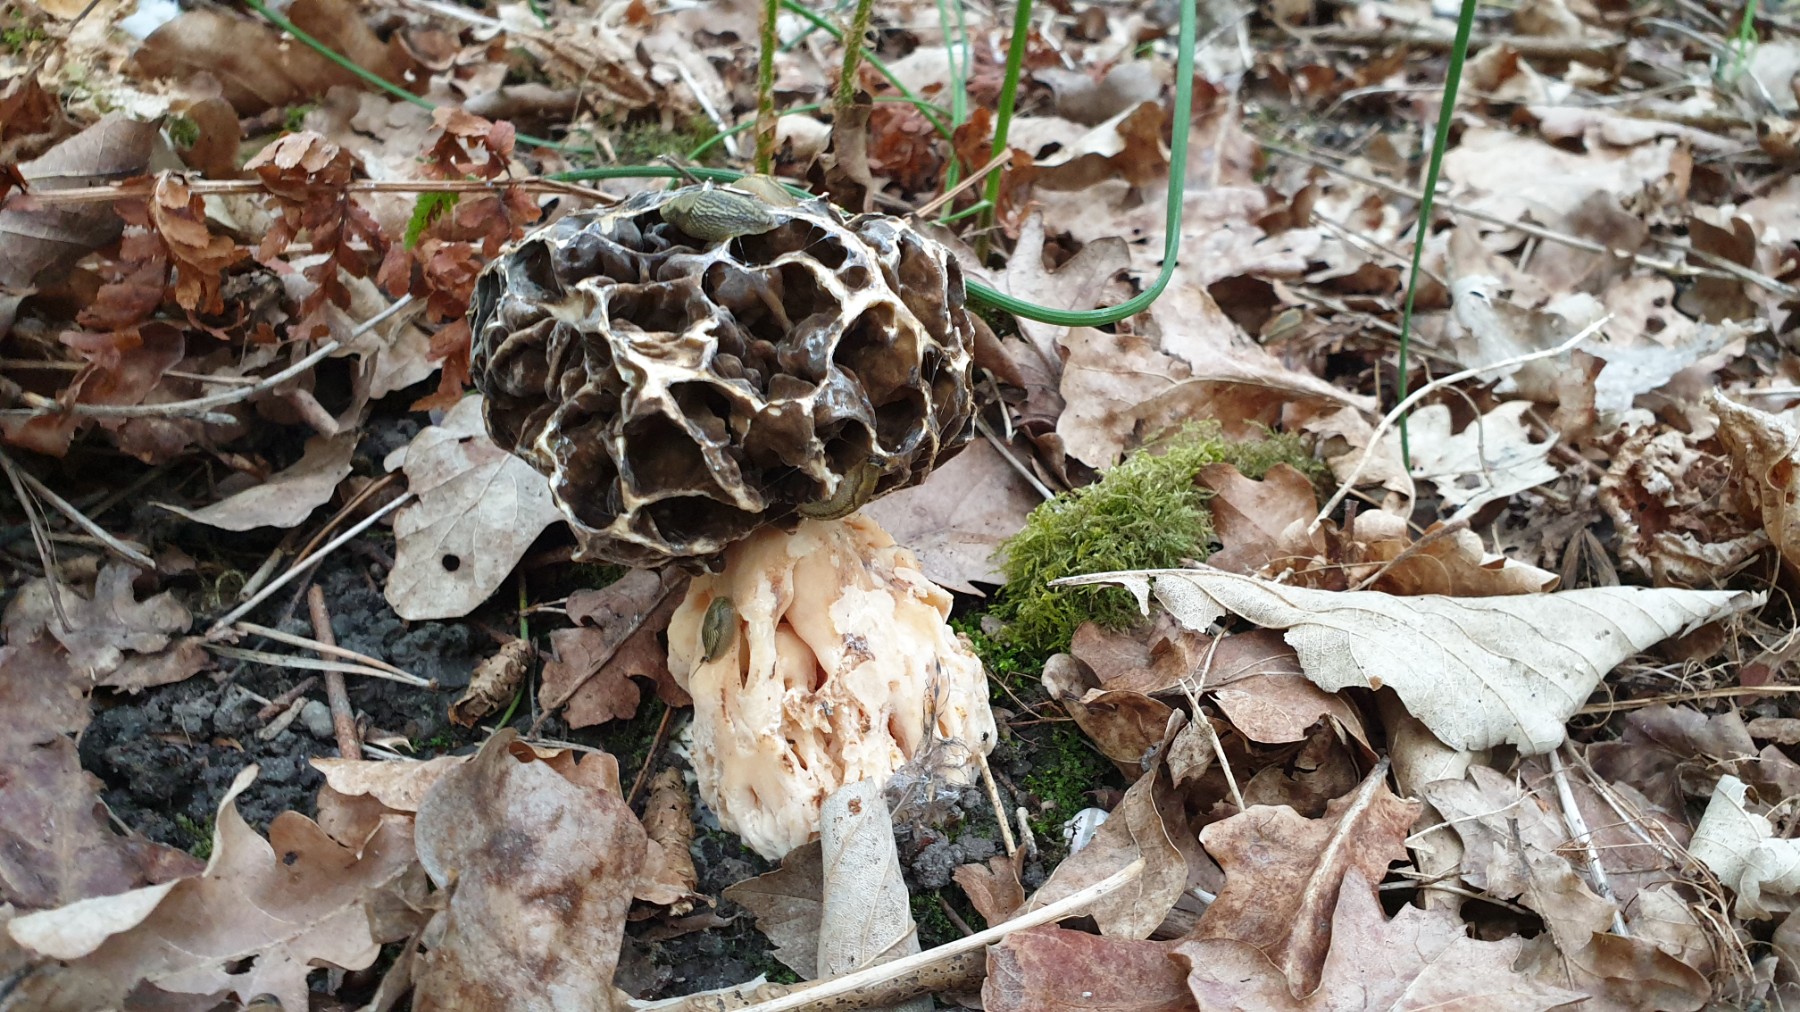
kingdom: Fungi
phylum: Ascomycota
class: Pezizomycetes
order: Pezizales
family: Morchellaceae
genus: Morchella
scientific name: Morchella esculenta
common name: spiselig morkel
